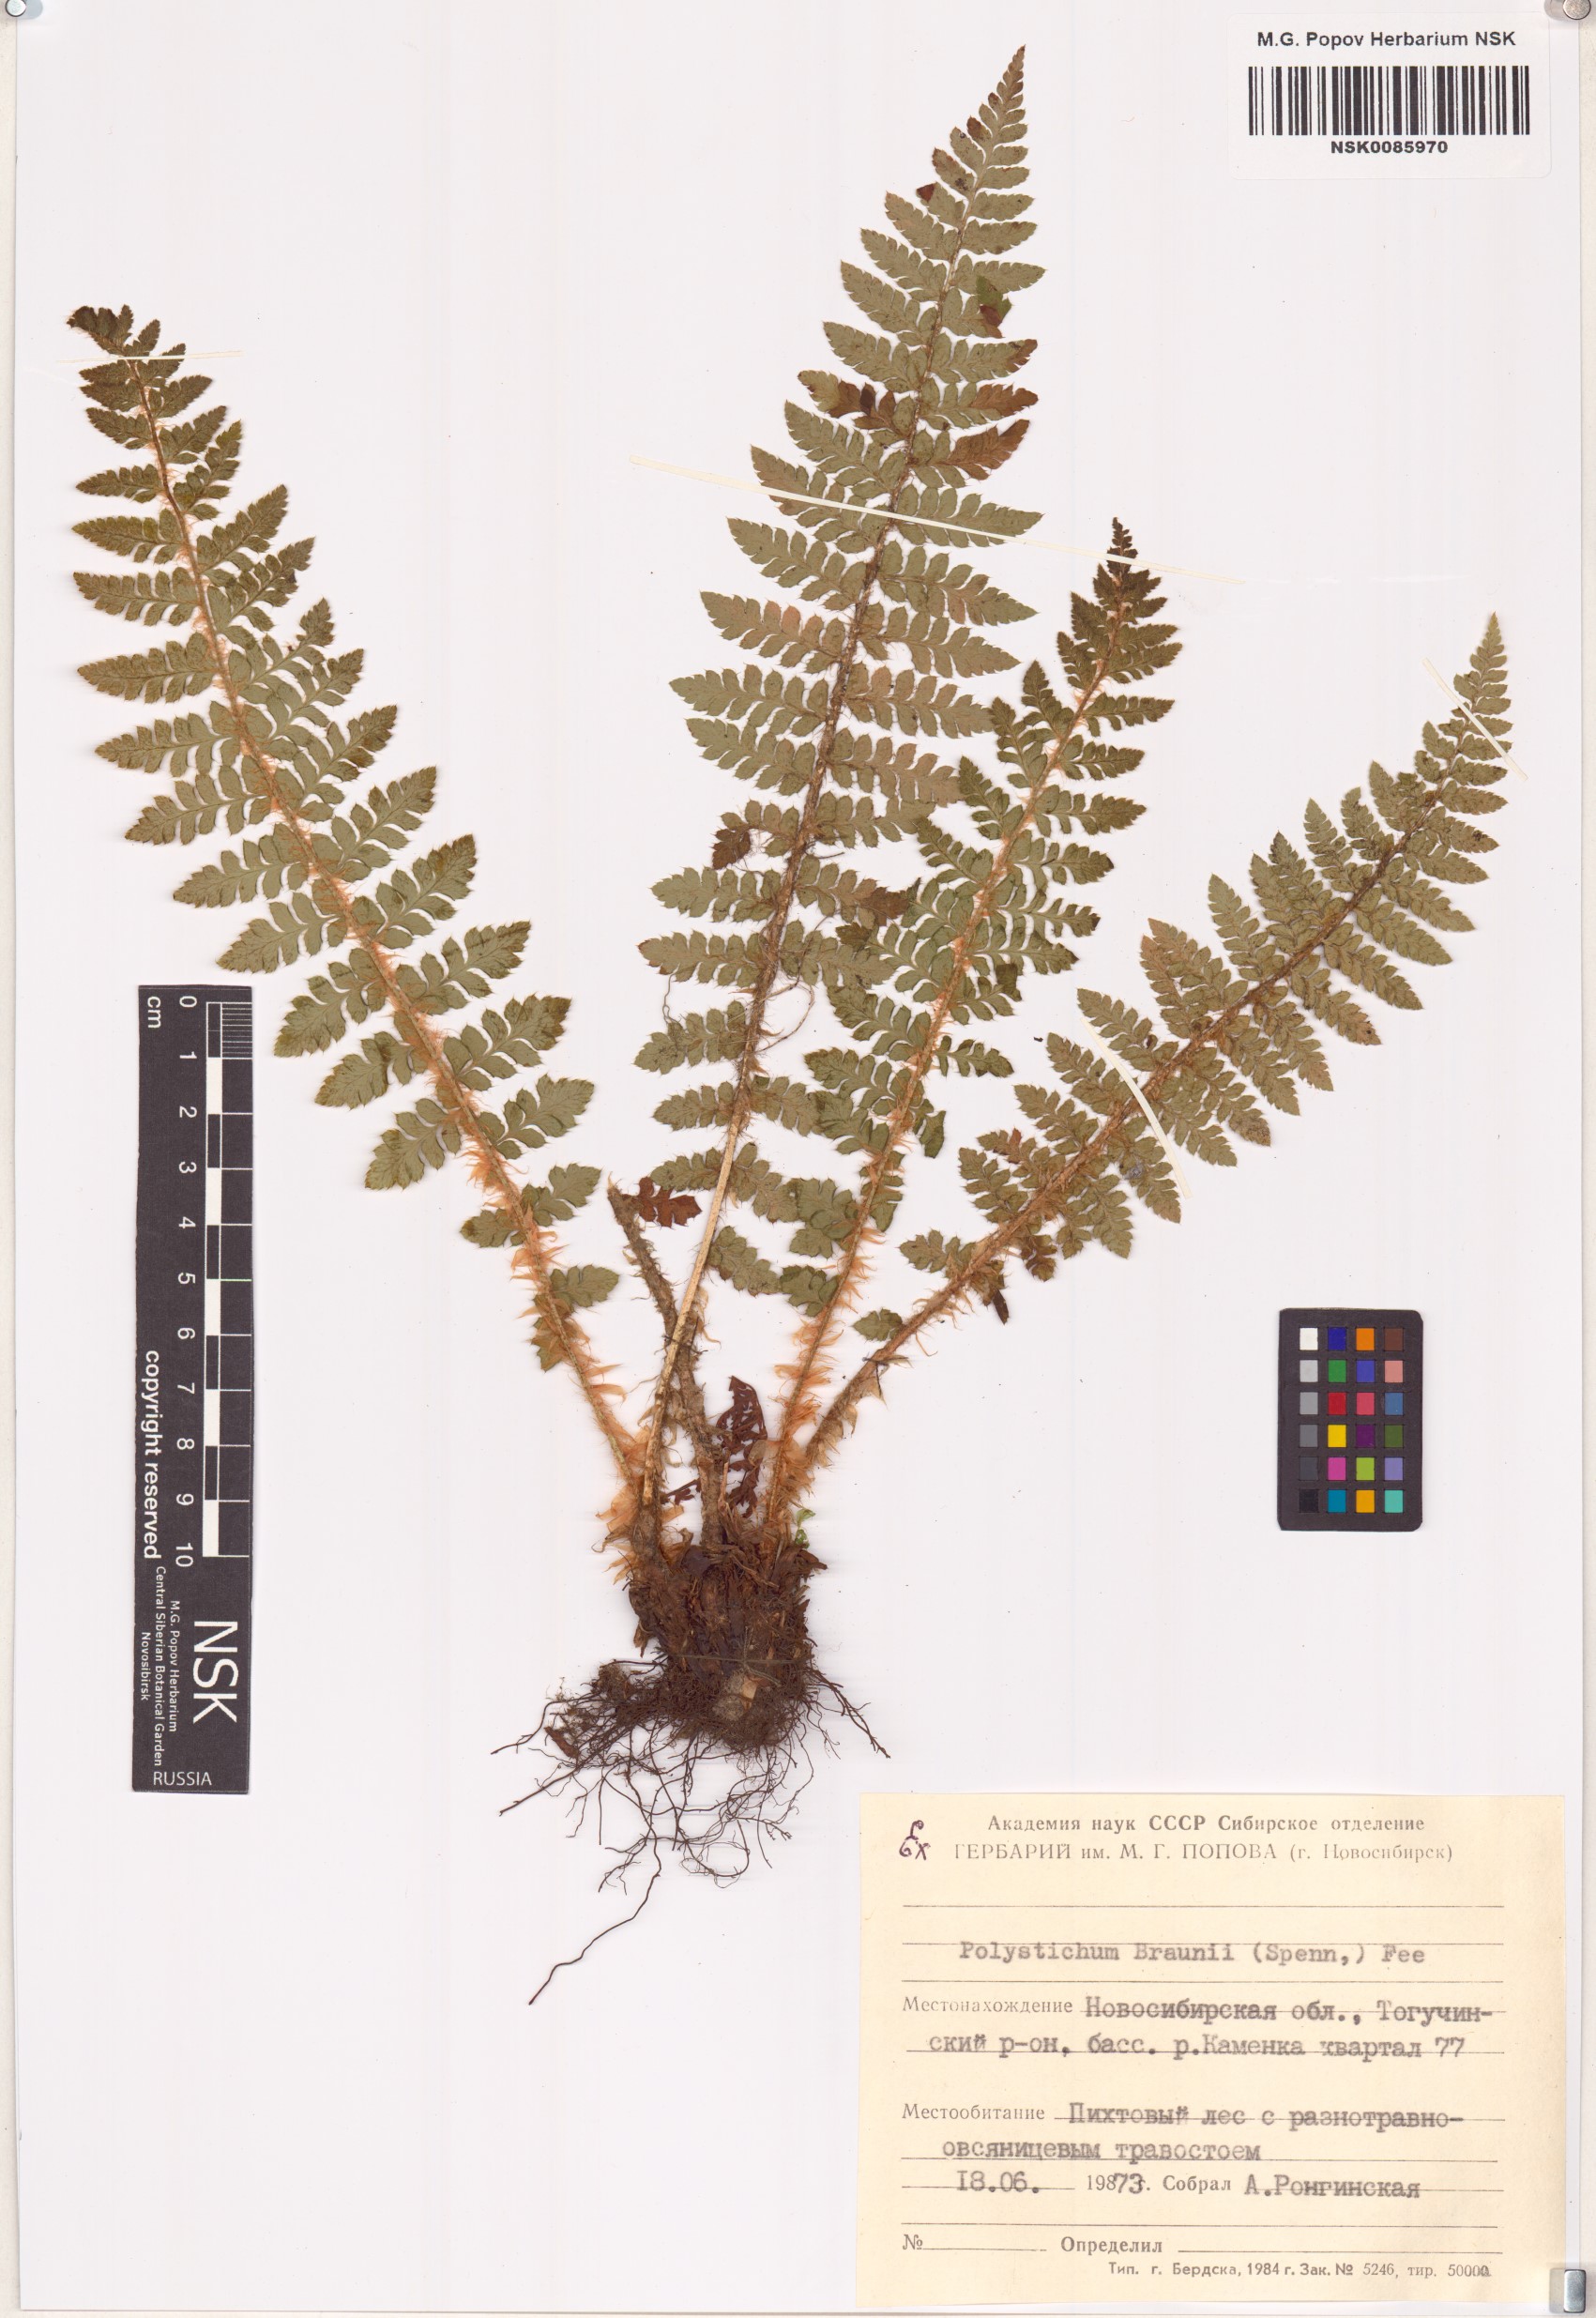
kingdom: Plantae
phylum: Tracheophyta
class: Polypodiopsida
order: Polypodiales
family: Dryopteridaceae
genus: Polystichum
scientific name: Polystichum braunii
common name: Braun's holly fern
